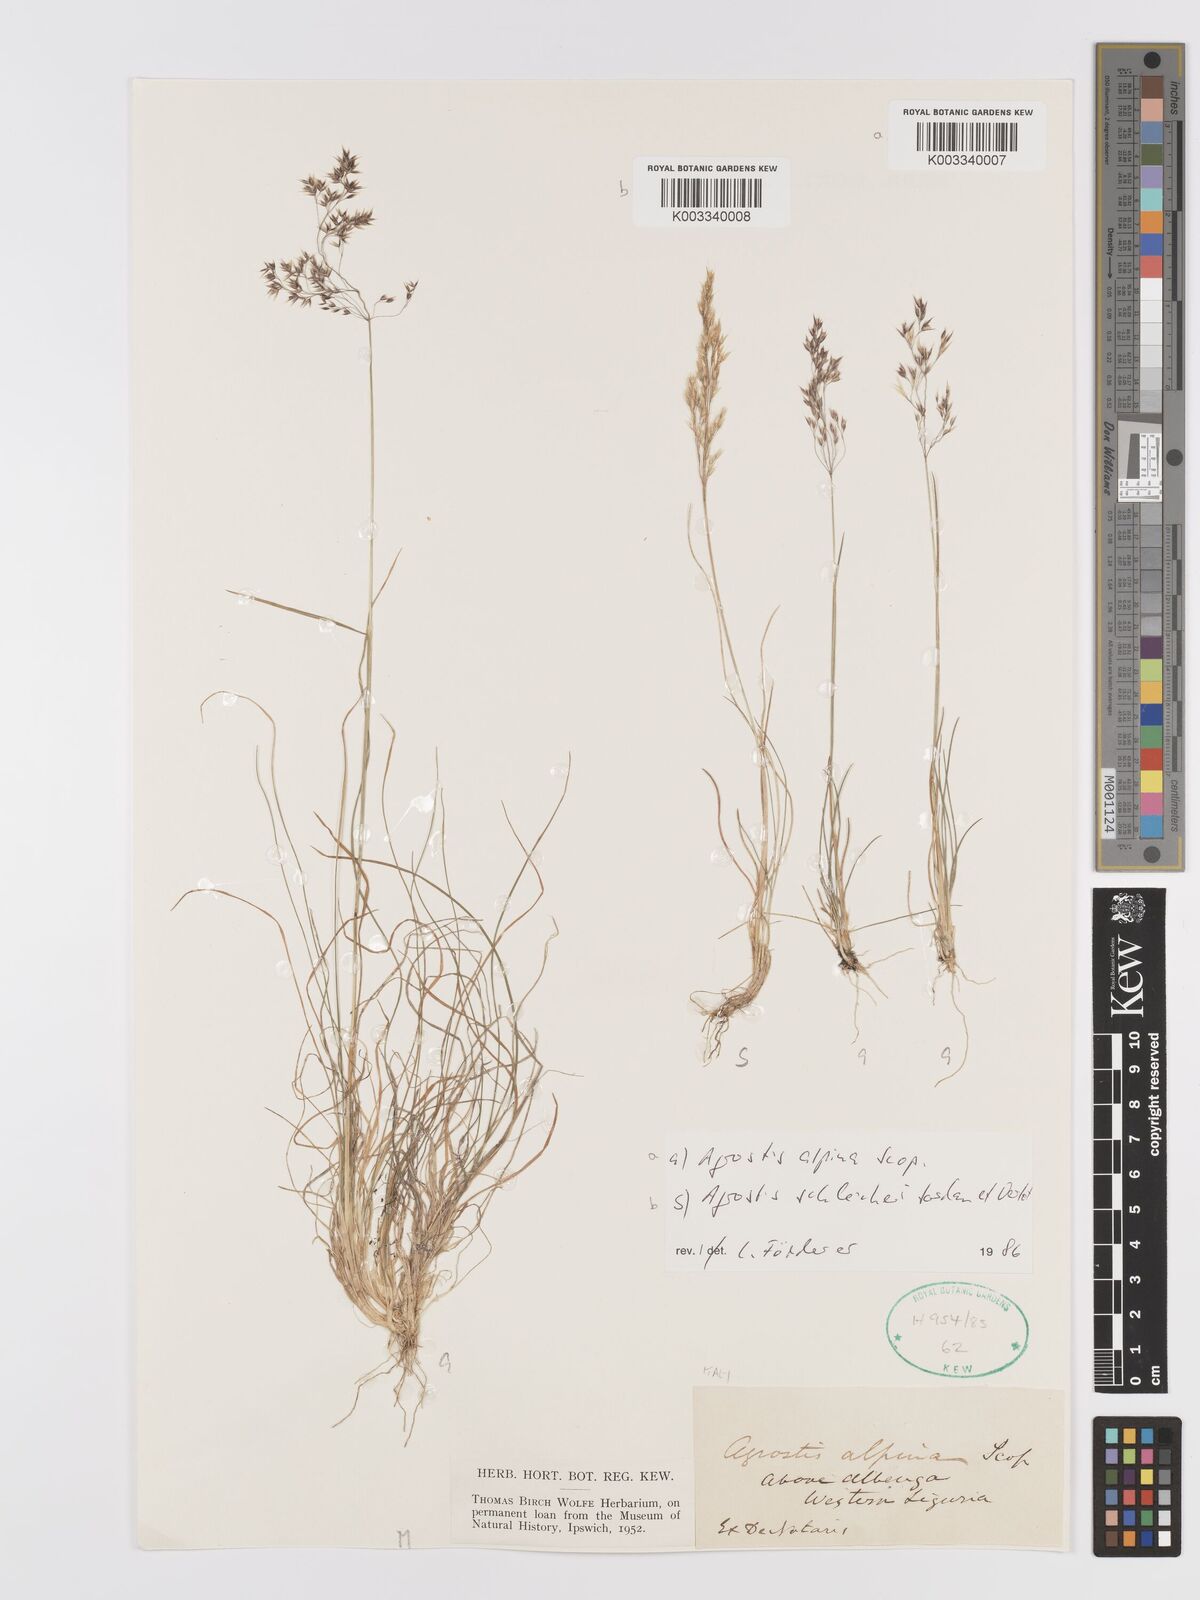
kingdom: Plantae
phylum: Tracheophyta
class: Liliopsida
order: Poales
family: Poaceae
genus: Alpagrostis
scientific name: Alpagrostis alpina
